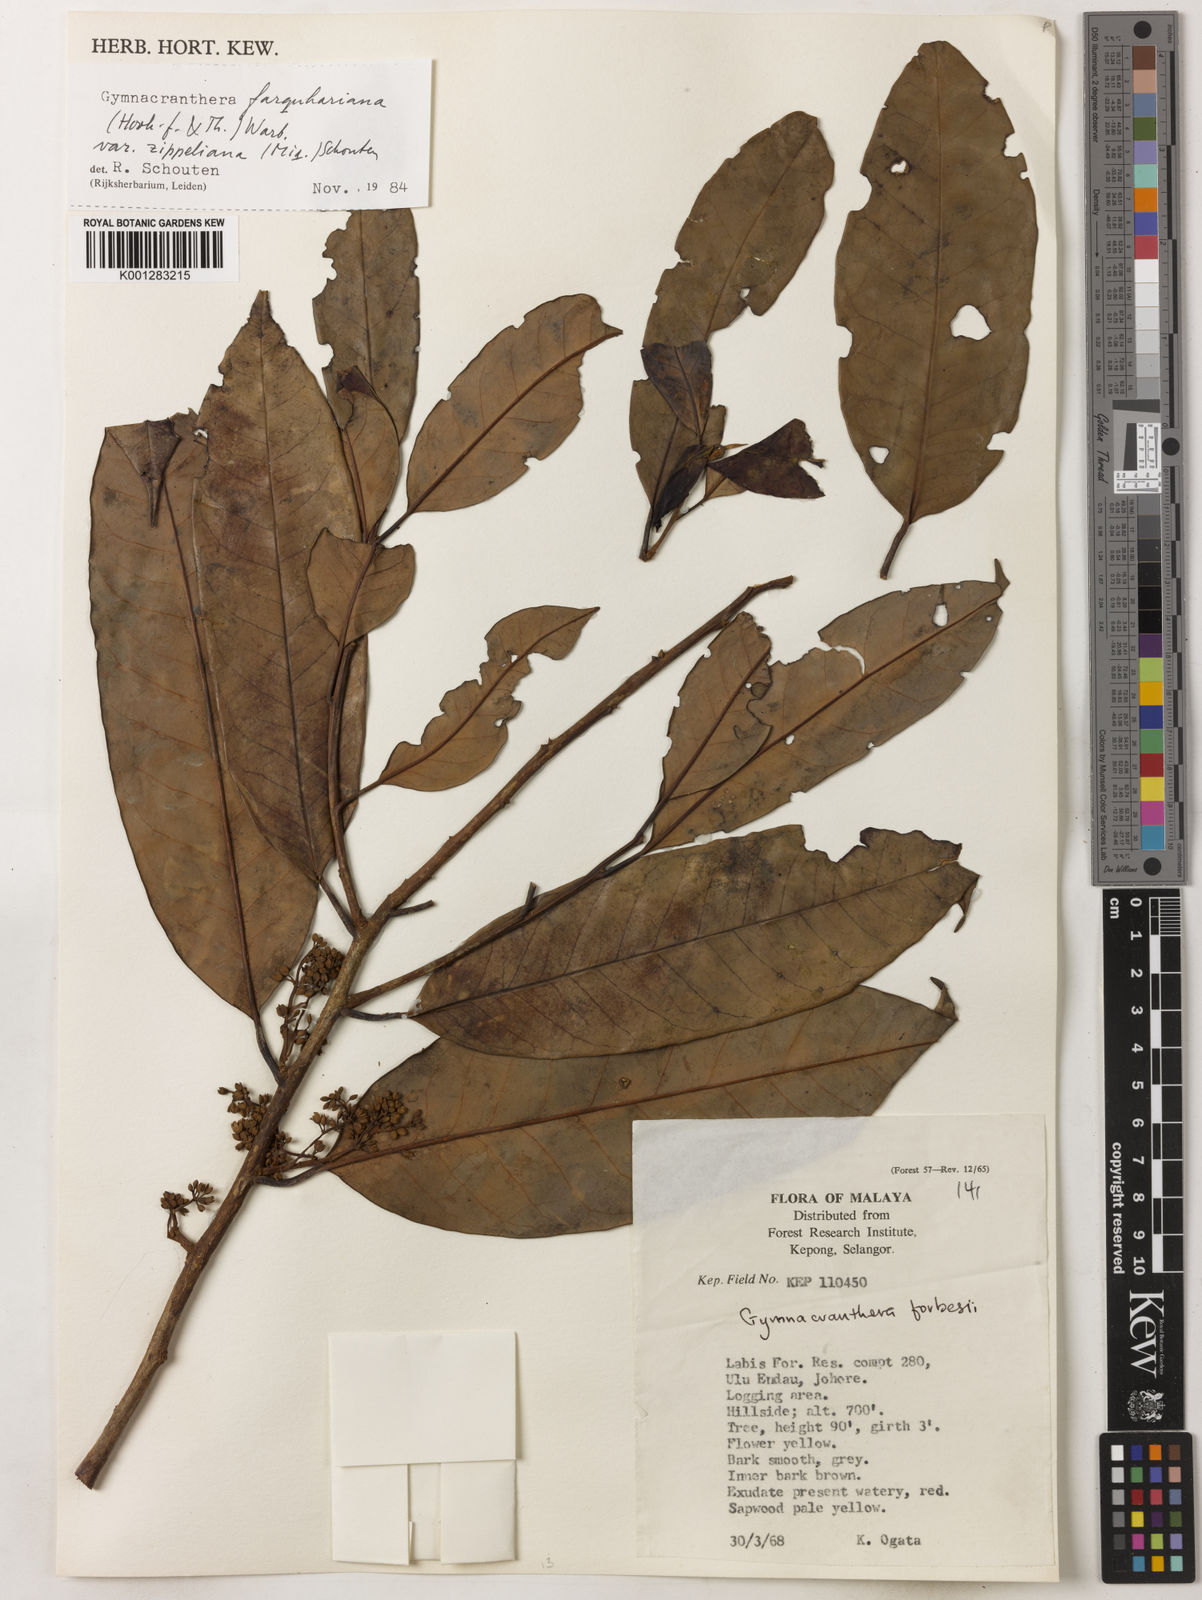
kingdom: Plantae
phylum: Tracheophyta
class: Magnoliopsida
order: Magnoliales
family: Myristicaceae
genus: Gymnacranthera
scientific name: Gymnacranthera farquhariana
